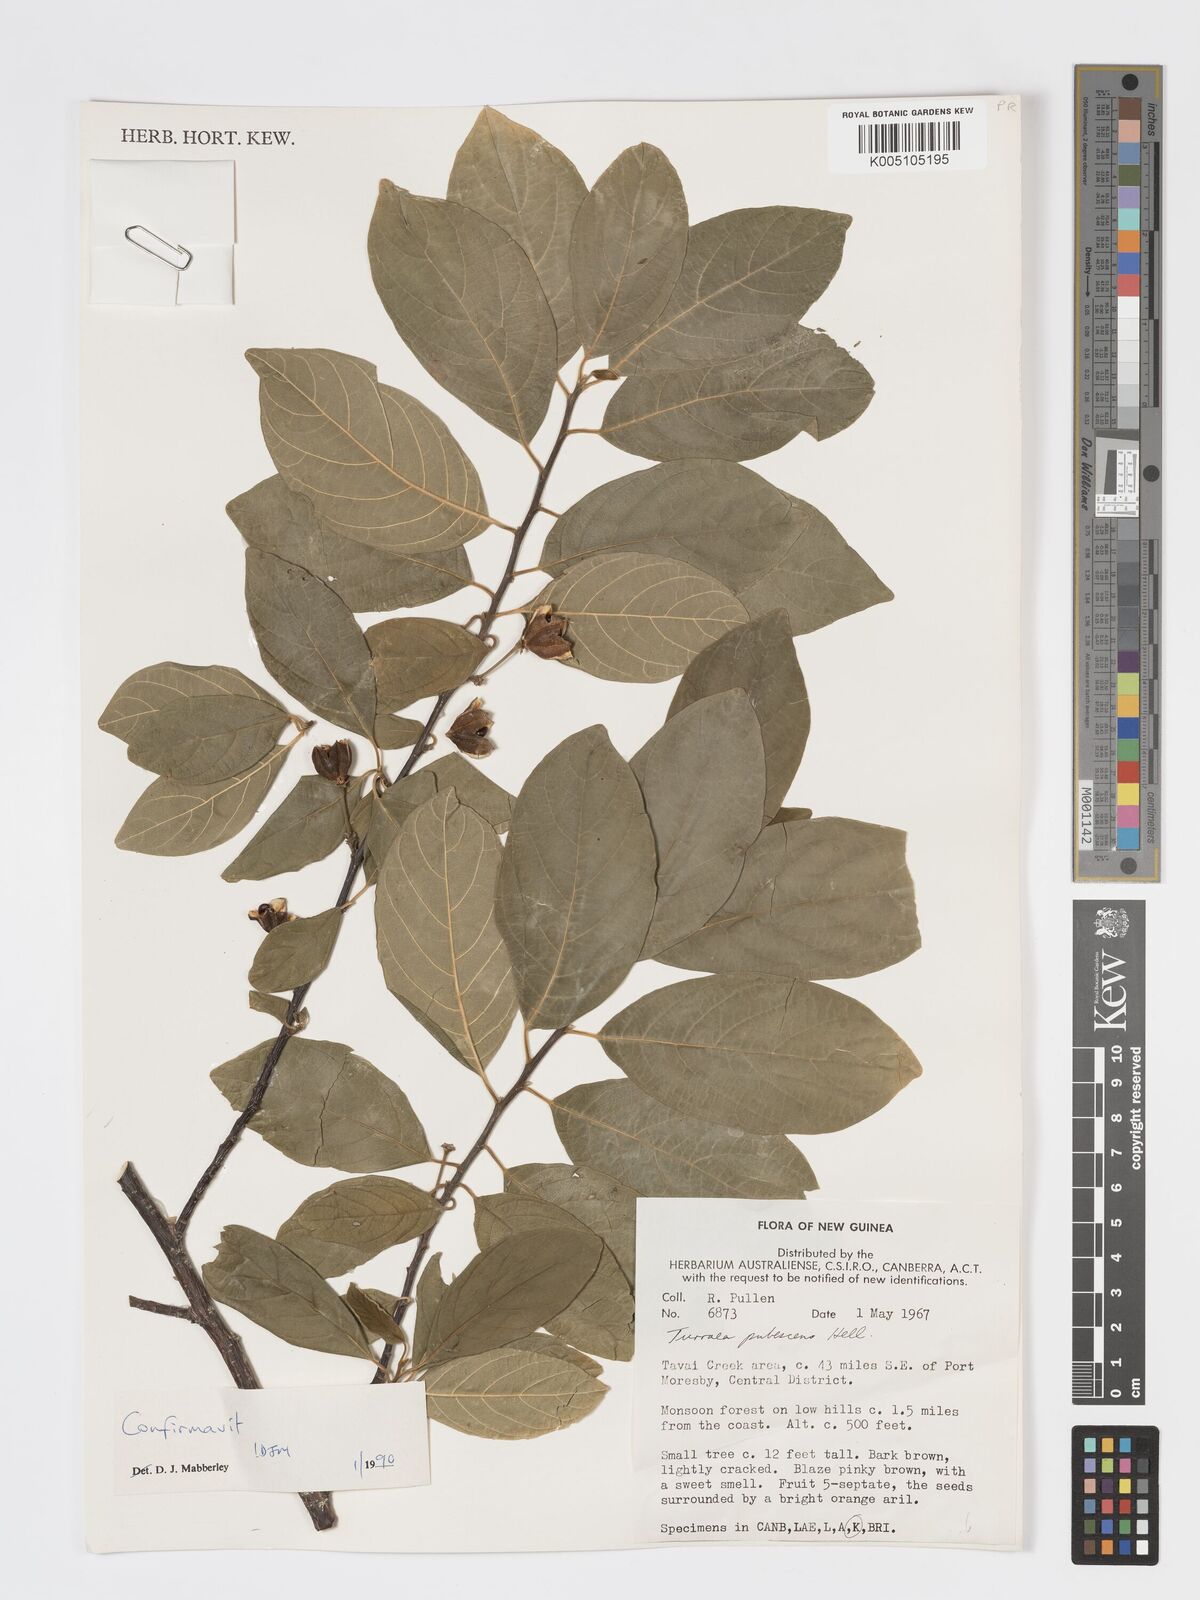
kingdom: Plantae
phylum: Tracheophyta
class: Magnoliopsida
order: Sapindales
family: Meliaceae
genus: Turraea
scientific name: Turraea
